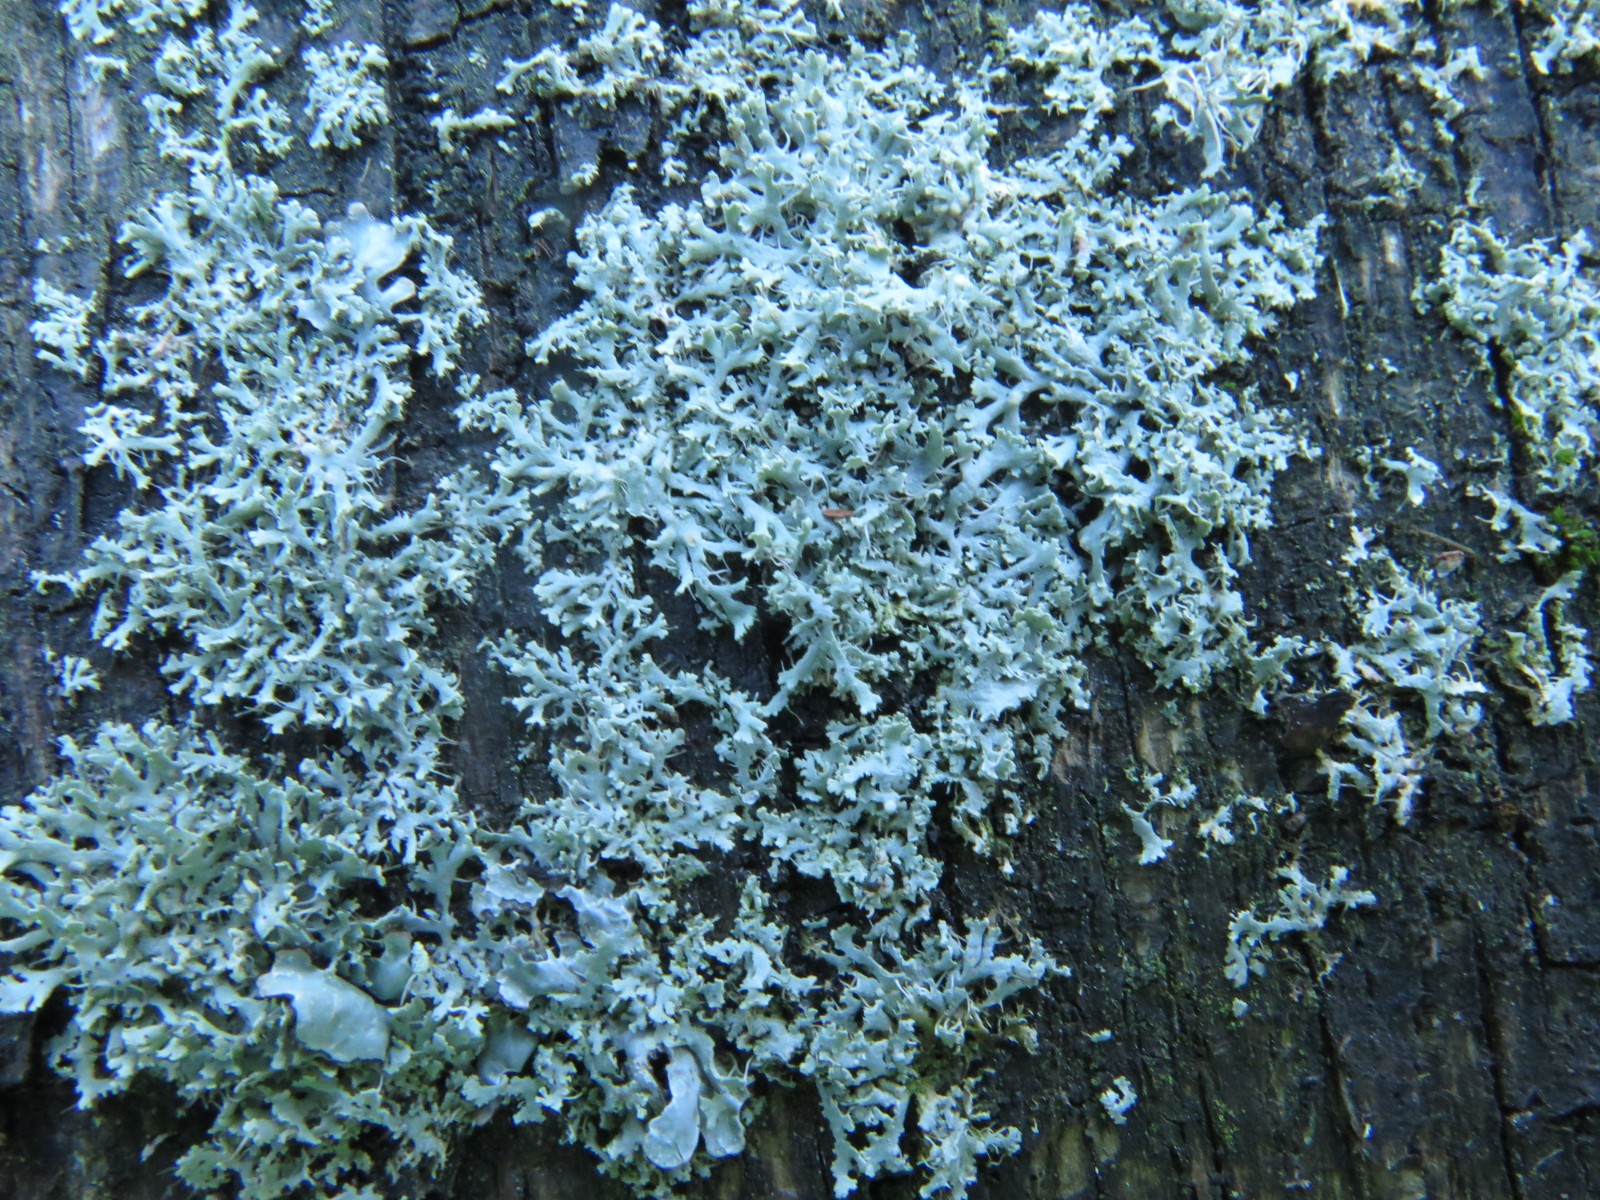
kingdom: Fungi
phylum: Ascomycota
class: Lecanoromycetes
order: Caliciales
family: Physciaceae
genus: Physcia
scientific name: Physcia tenella
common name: spæd rosetlav
